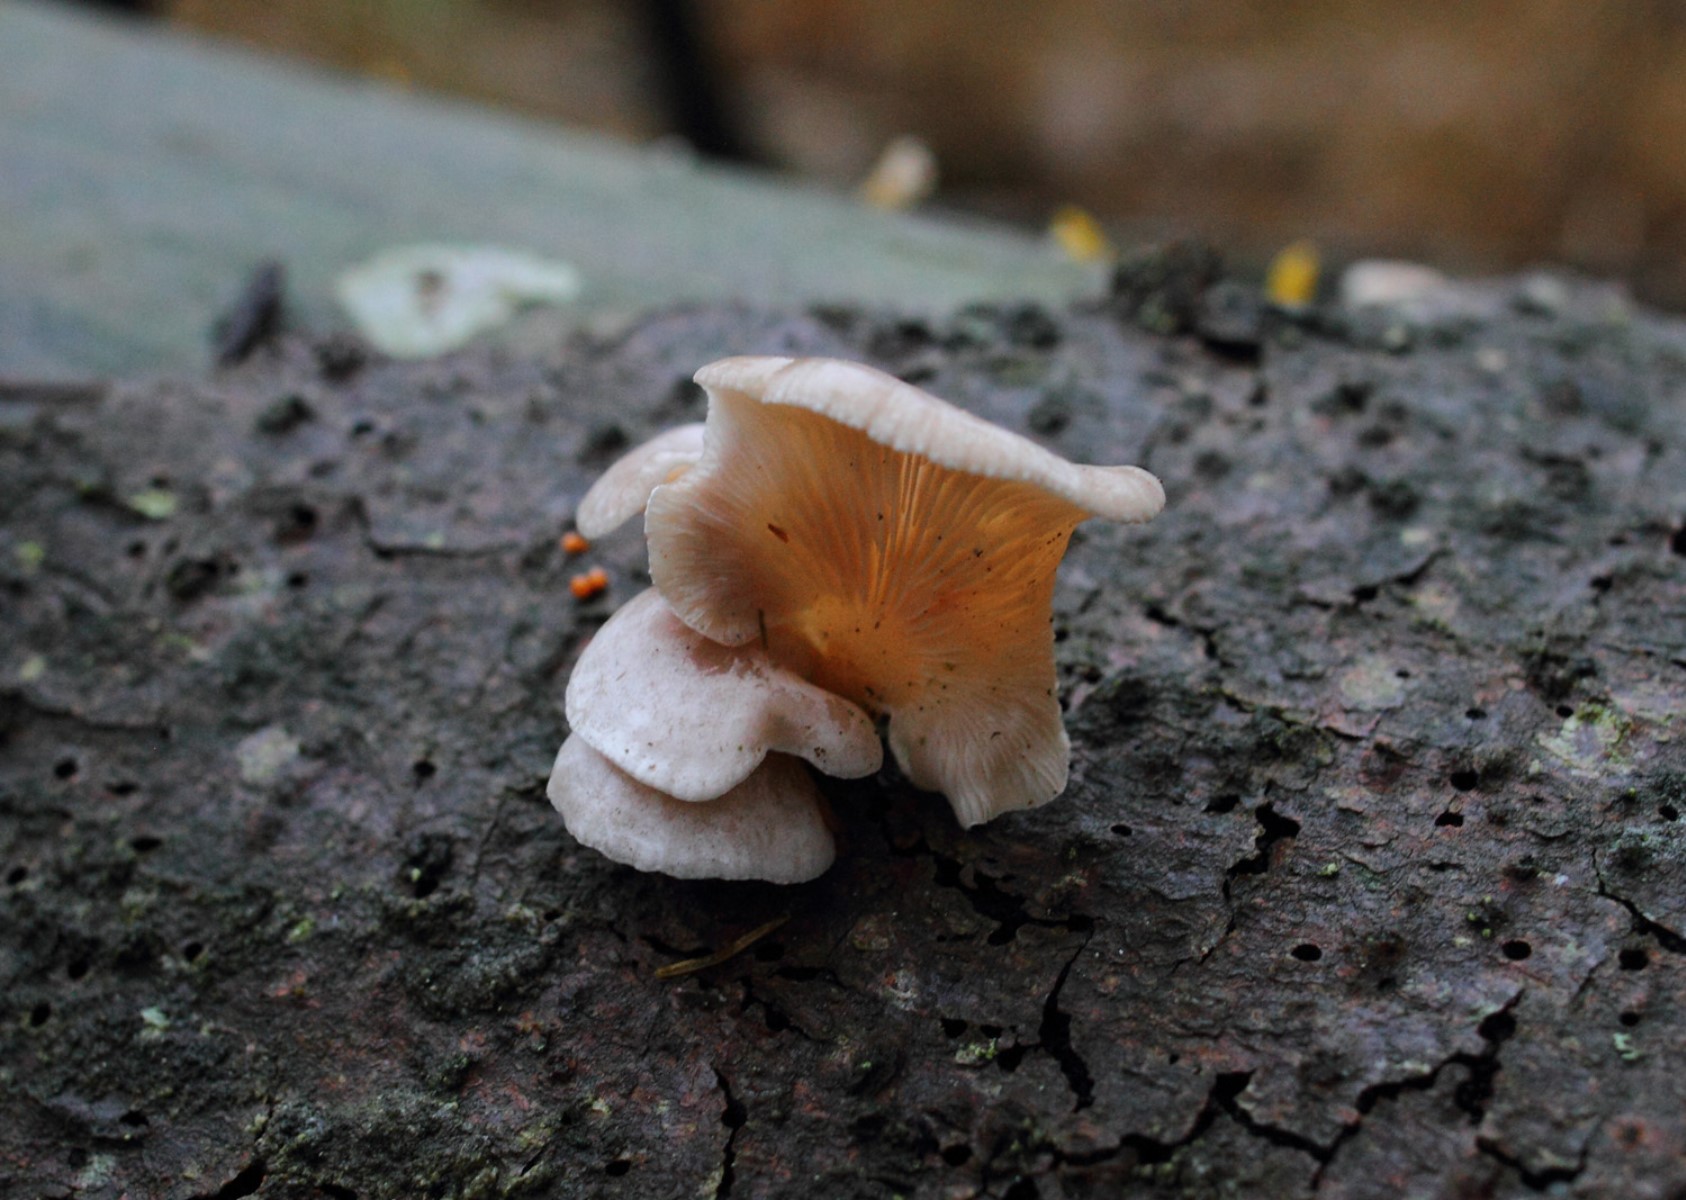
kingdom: Fungi
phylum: Basidiomycota
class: Agaricomycetes
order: Agaricales
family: Mycenaceae
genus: Panellus
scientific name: Panellus mitis
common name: mild epaulethat
